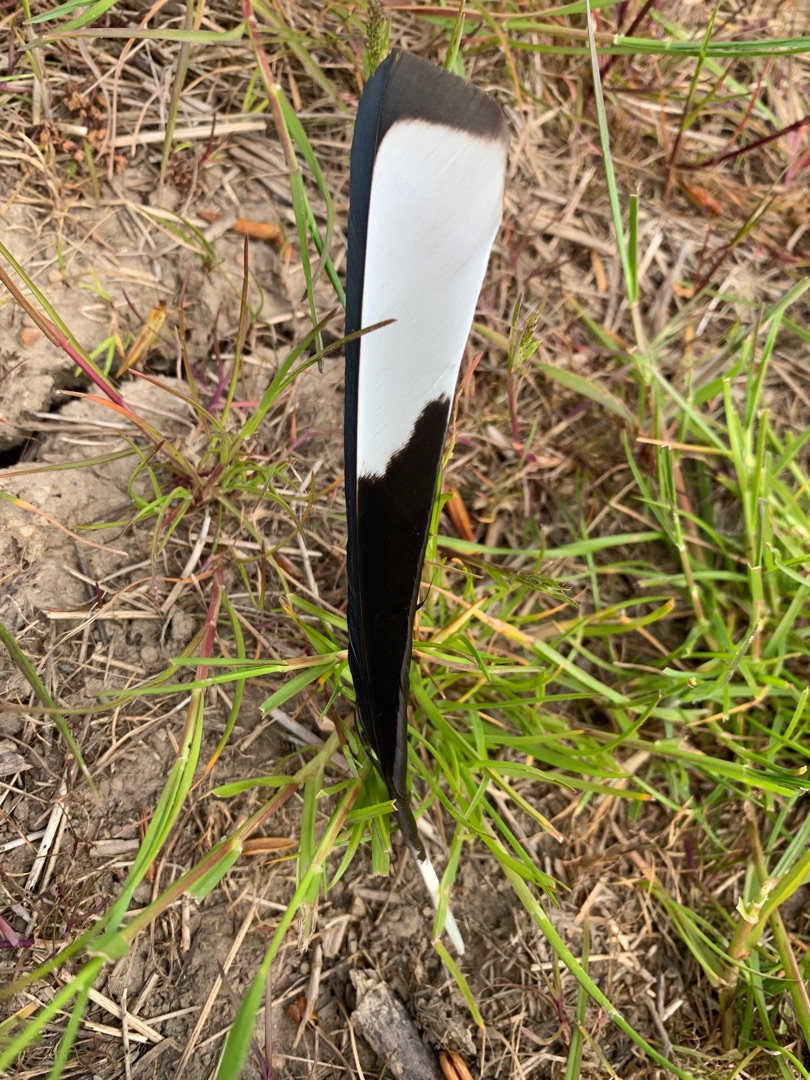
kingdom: Animalia
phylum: Chordata
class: Aves
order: Passeriformes
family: Corvidae
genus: Pica
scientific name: Pica pica
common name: Husskade
